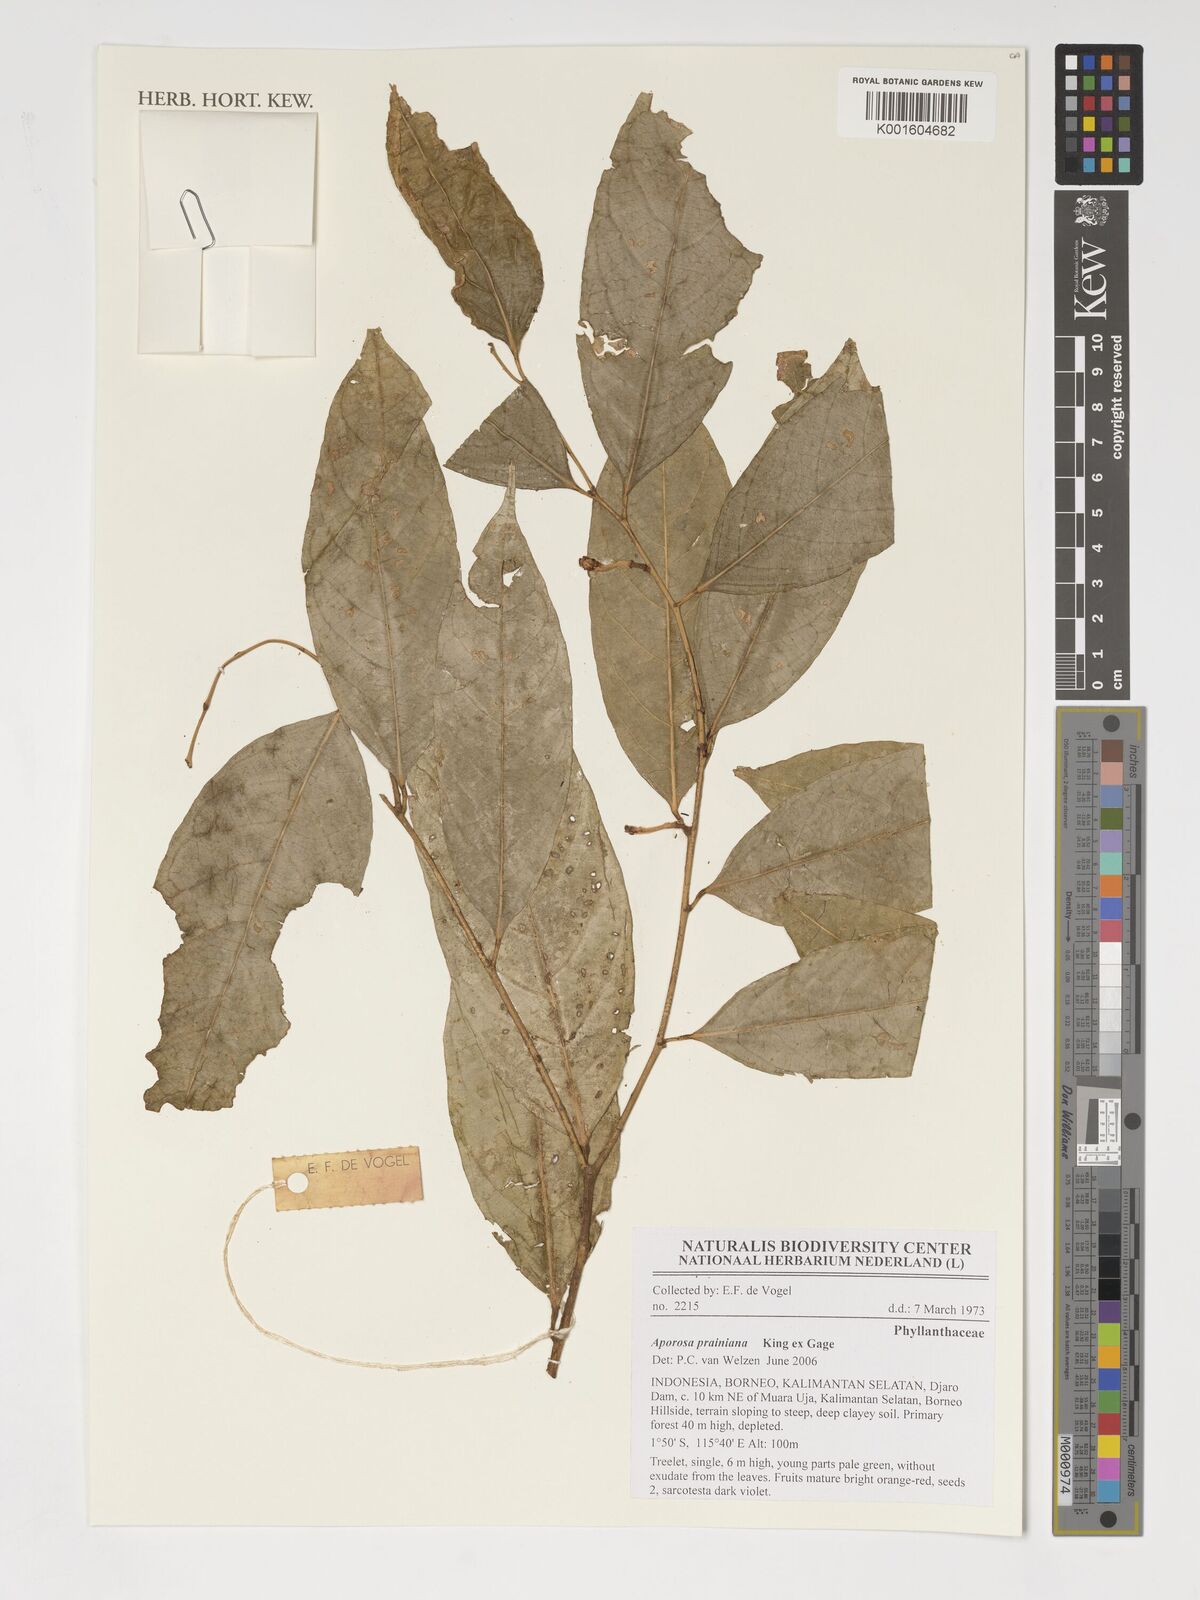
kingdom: Plantae
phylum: Tracheophyta
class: Magnoliopsida
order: Malpighiales
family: Phyllanthaceae
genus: Aporosa
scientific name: Aporosa prainiana
